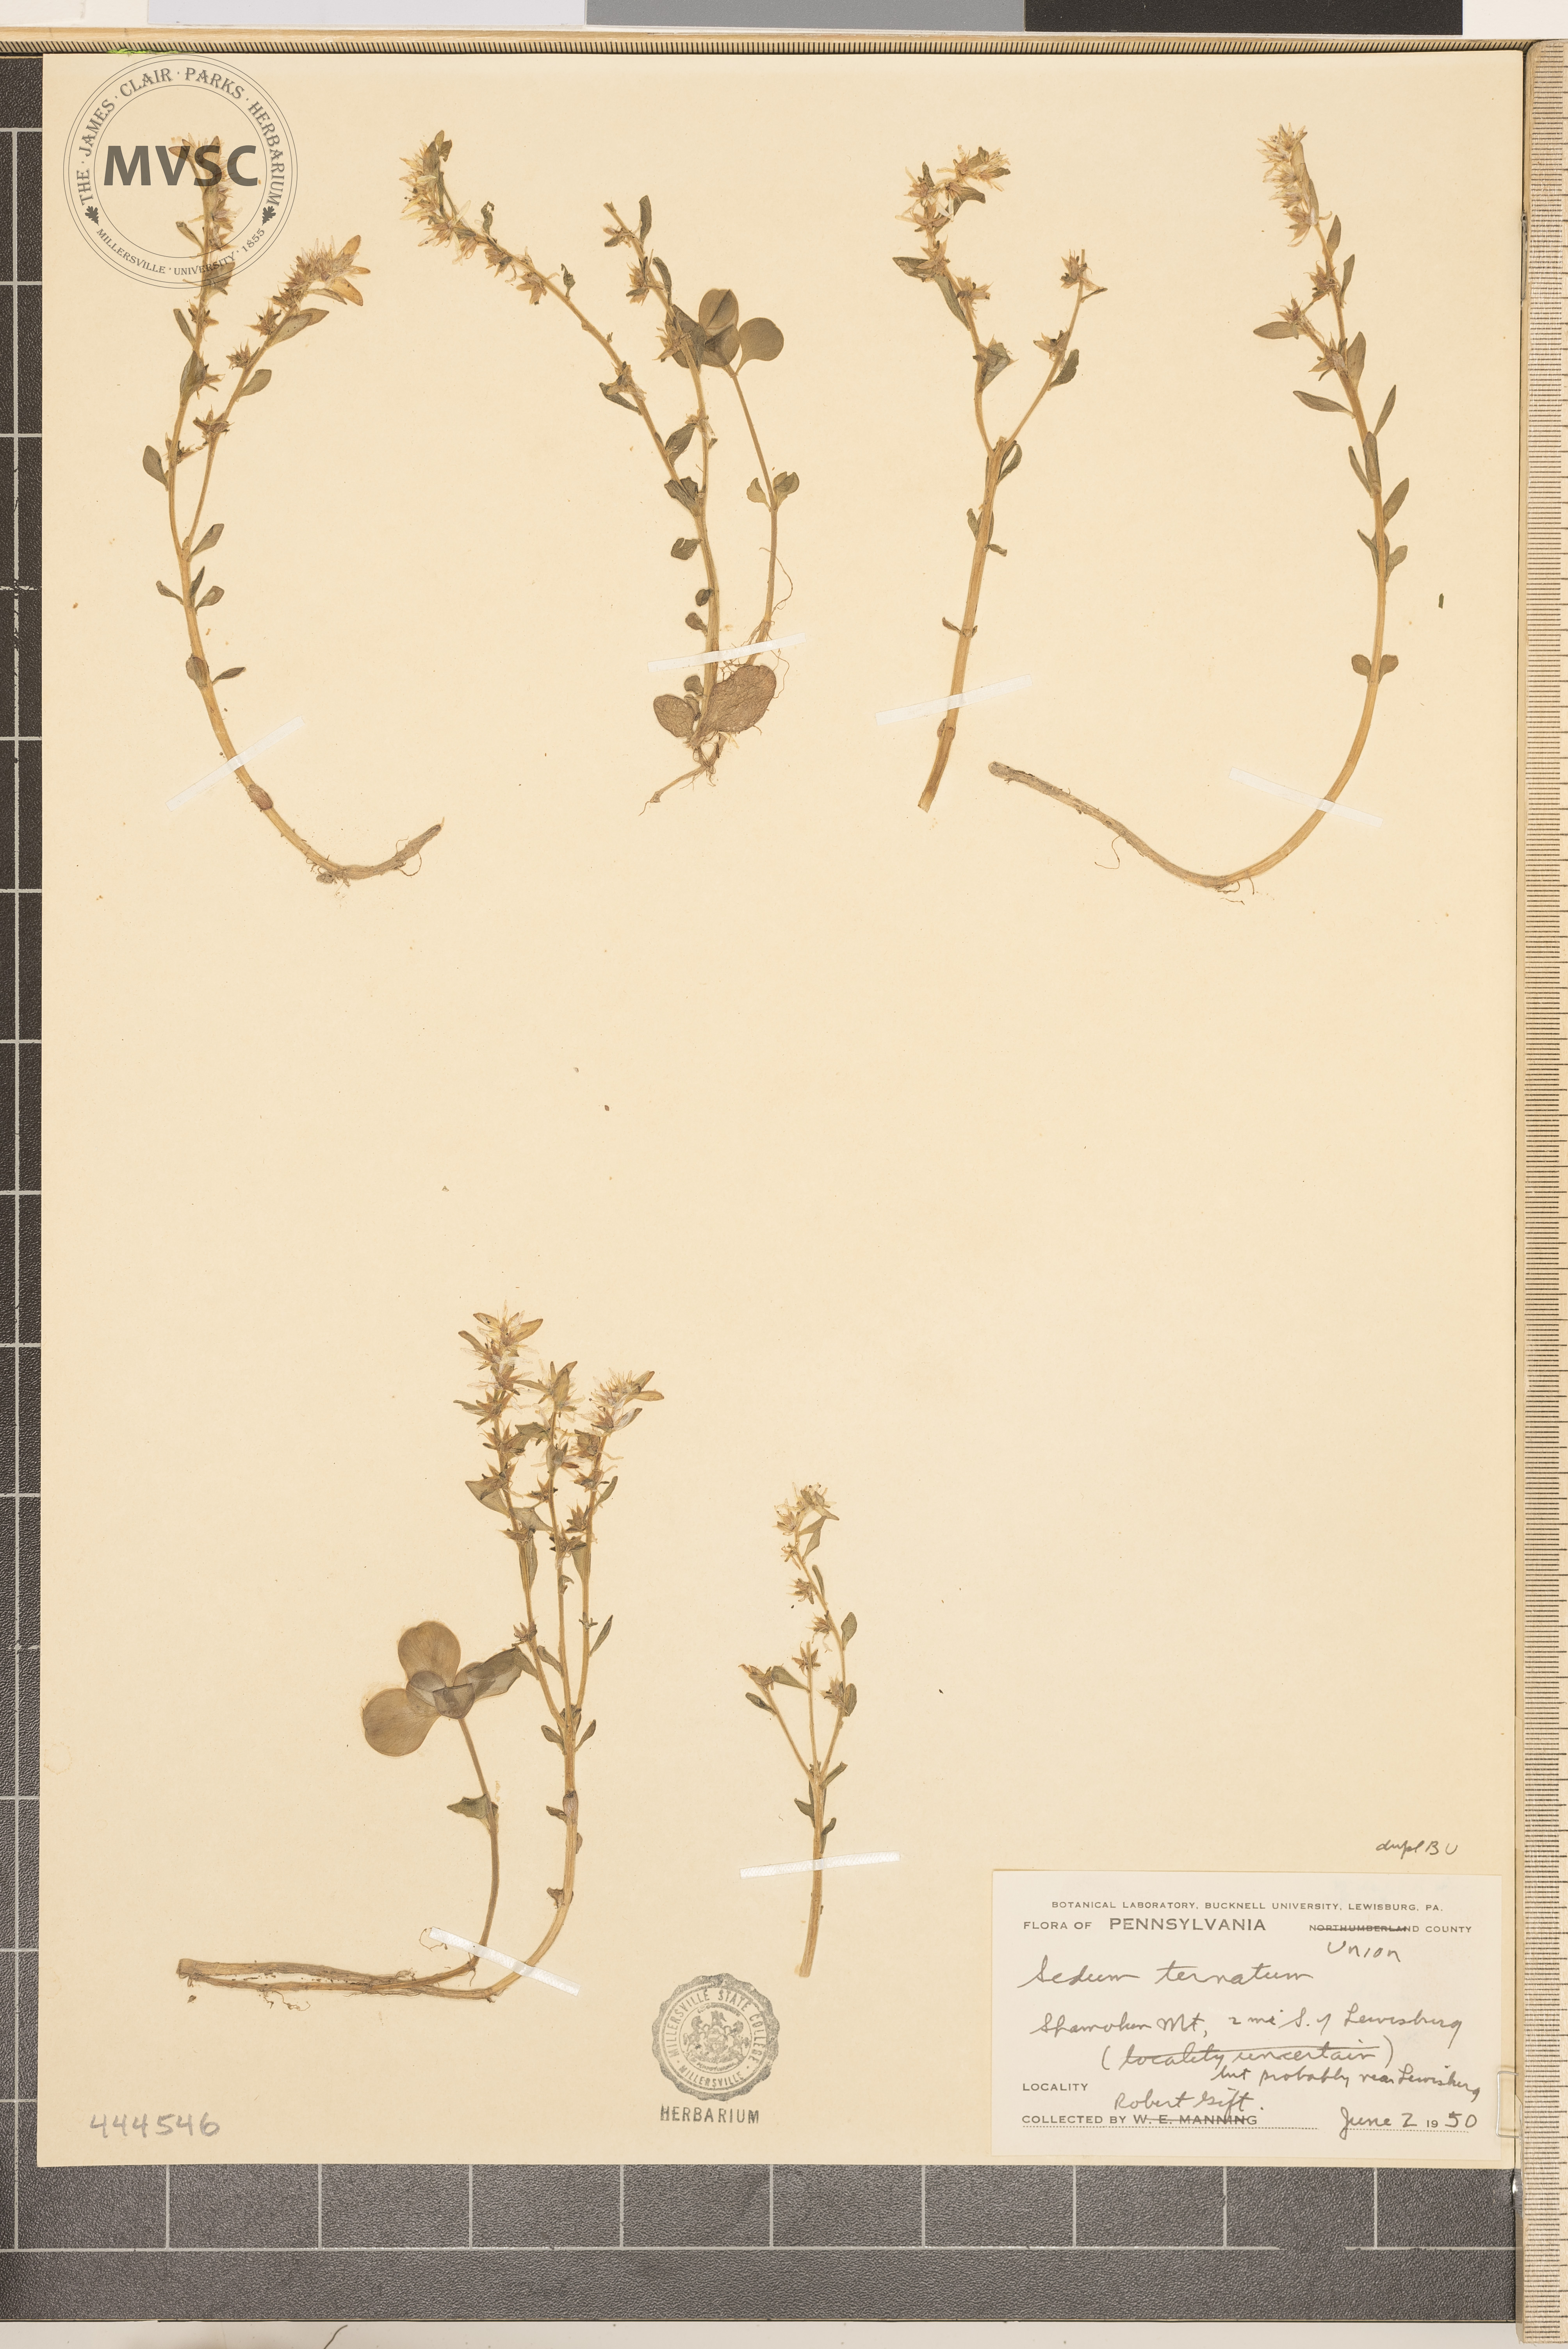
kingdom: Plantae
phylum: Tracheophyta
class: Magnoliopsida
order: Saxifragales
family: Crassulaceae
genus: Sedum
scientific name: Sedum ternatum
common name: Wild stonecrop
